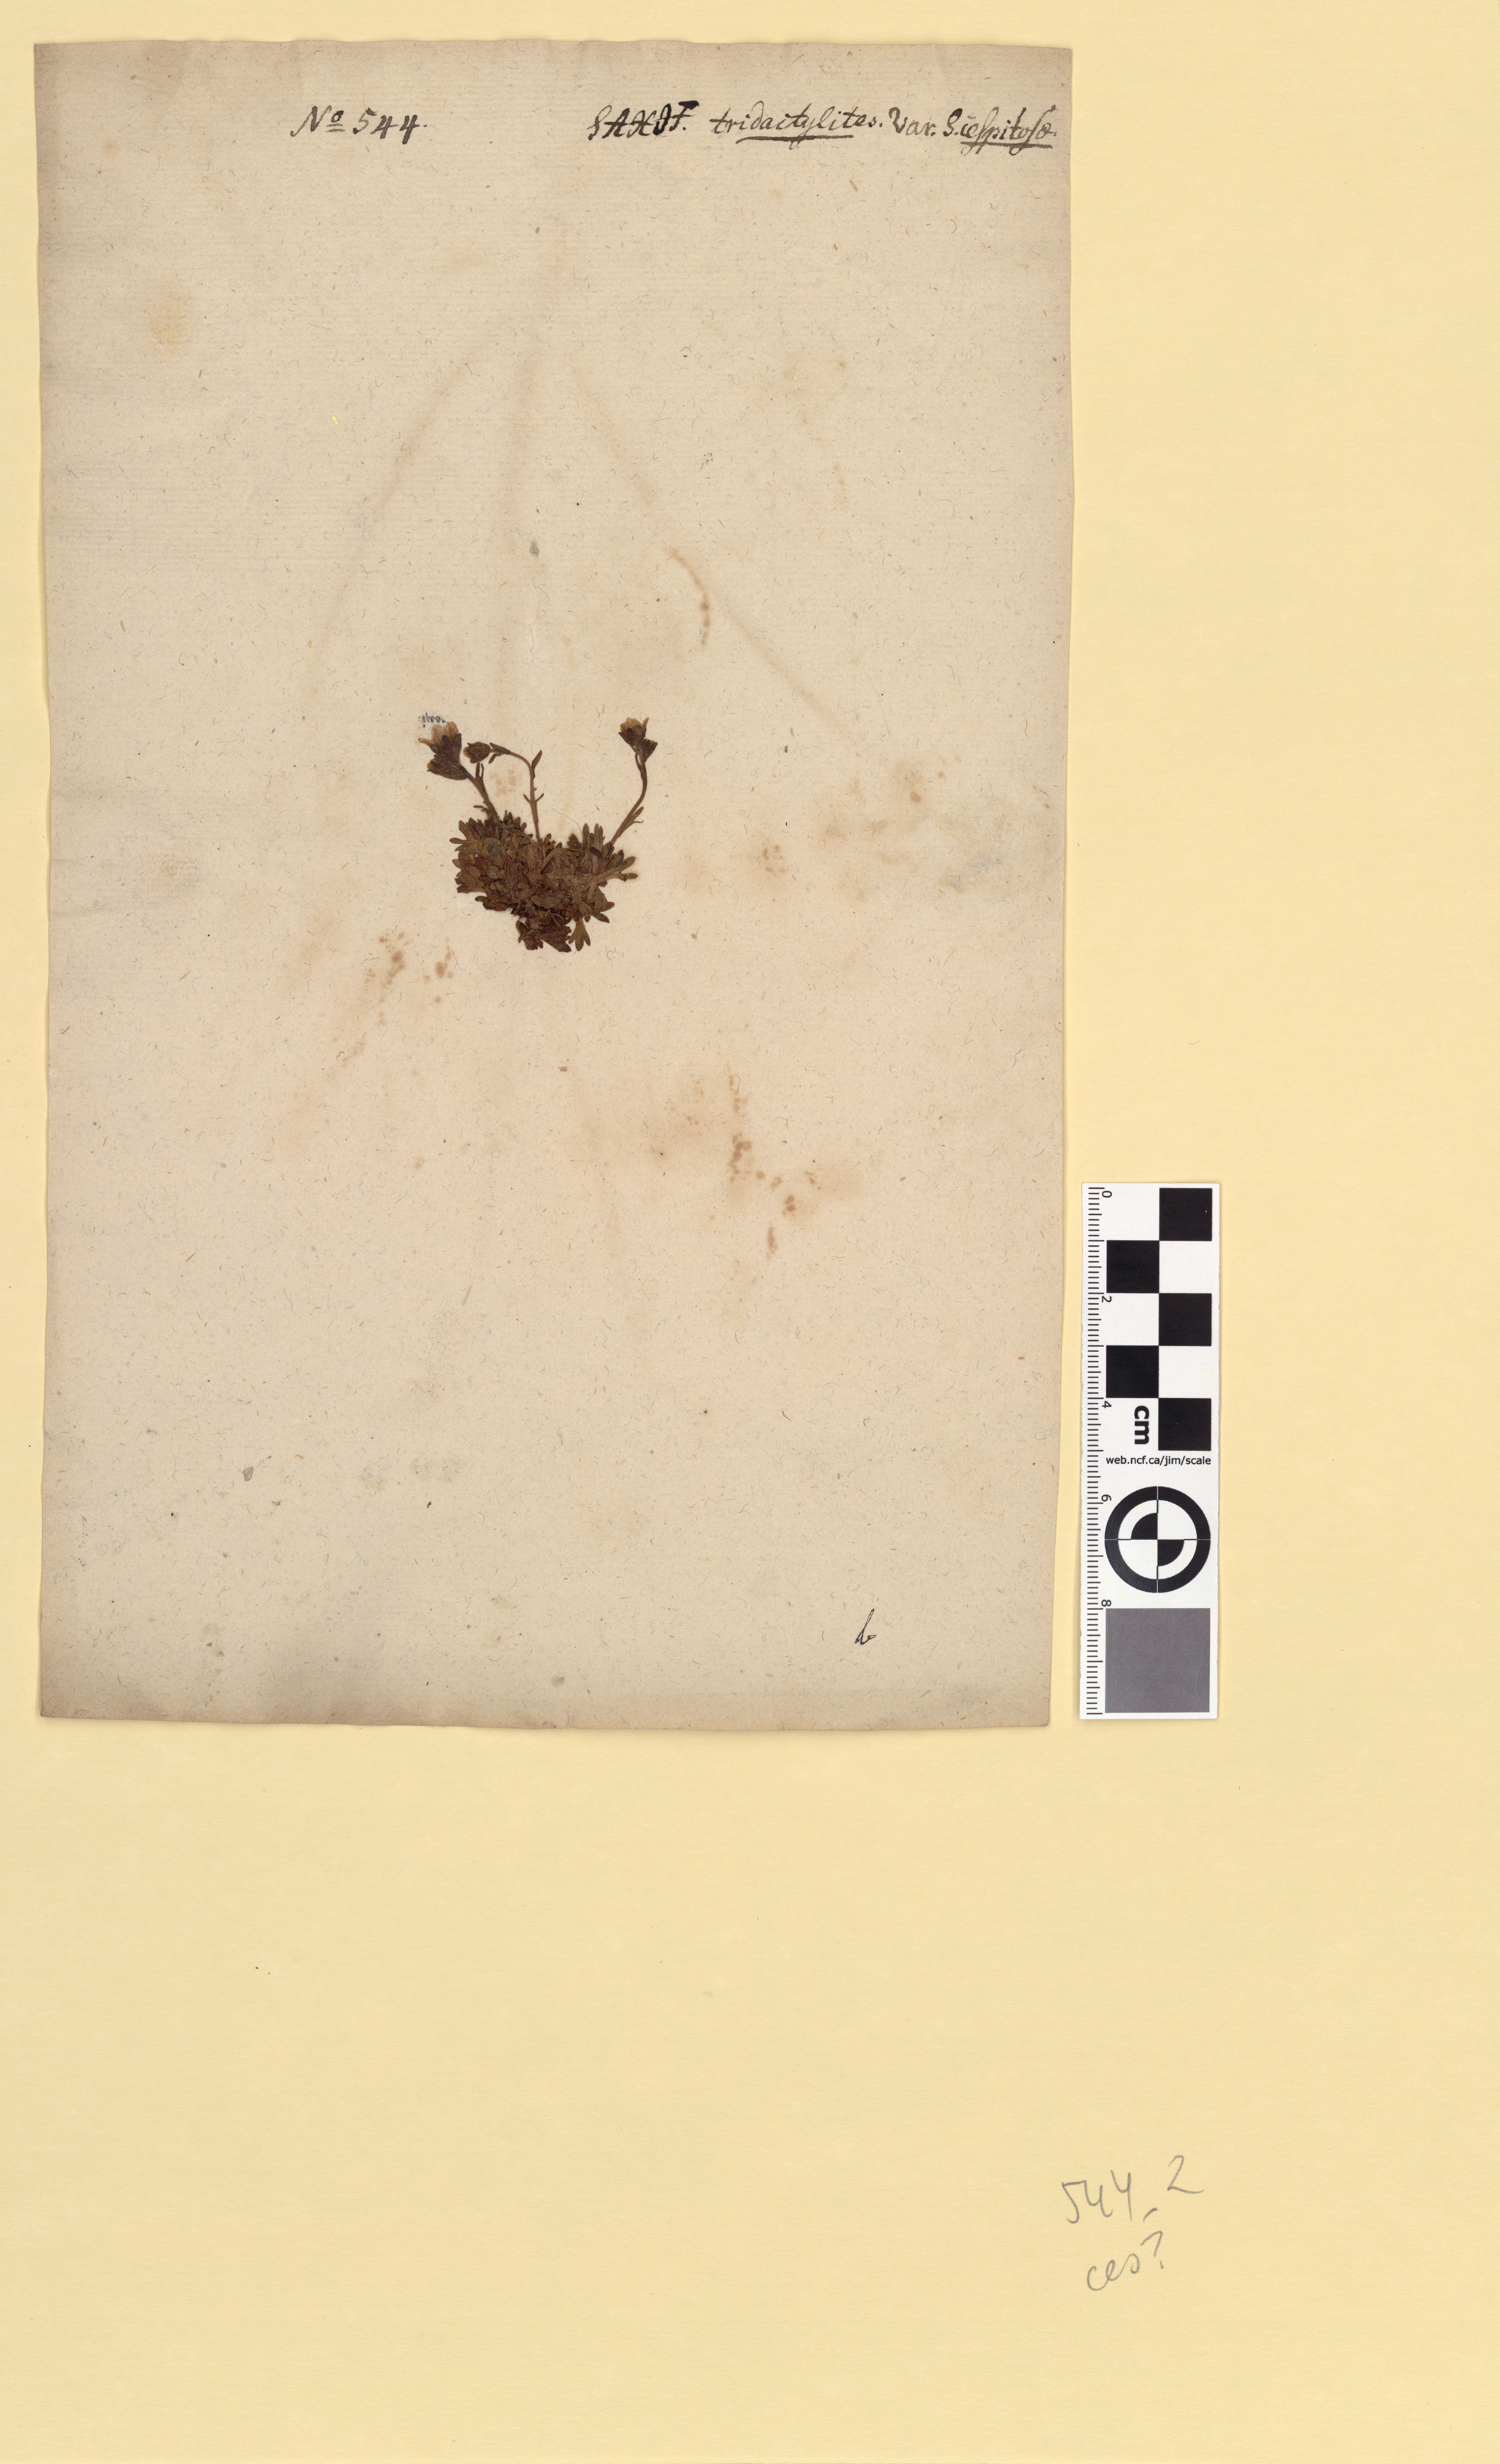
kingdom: Plantae
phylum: Tracheophyta
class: Magnoliopsida
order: Saxifragales
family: Saxifragaceae
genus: Saxifraga
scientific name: Saxifraga cespitosa
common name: Tufted saxifrage
